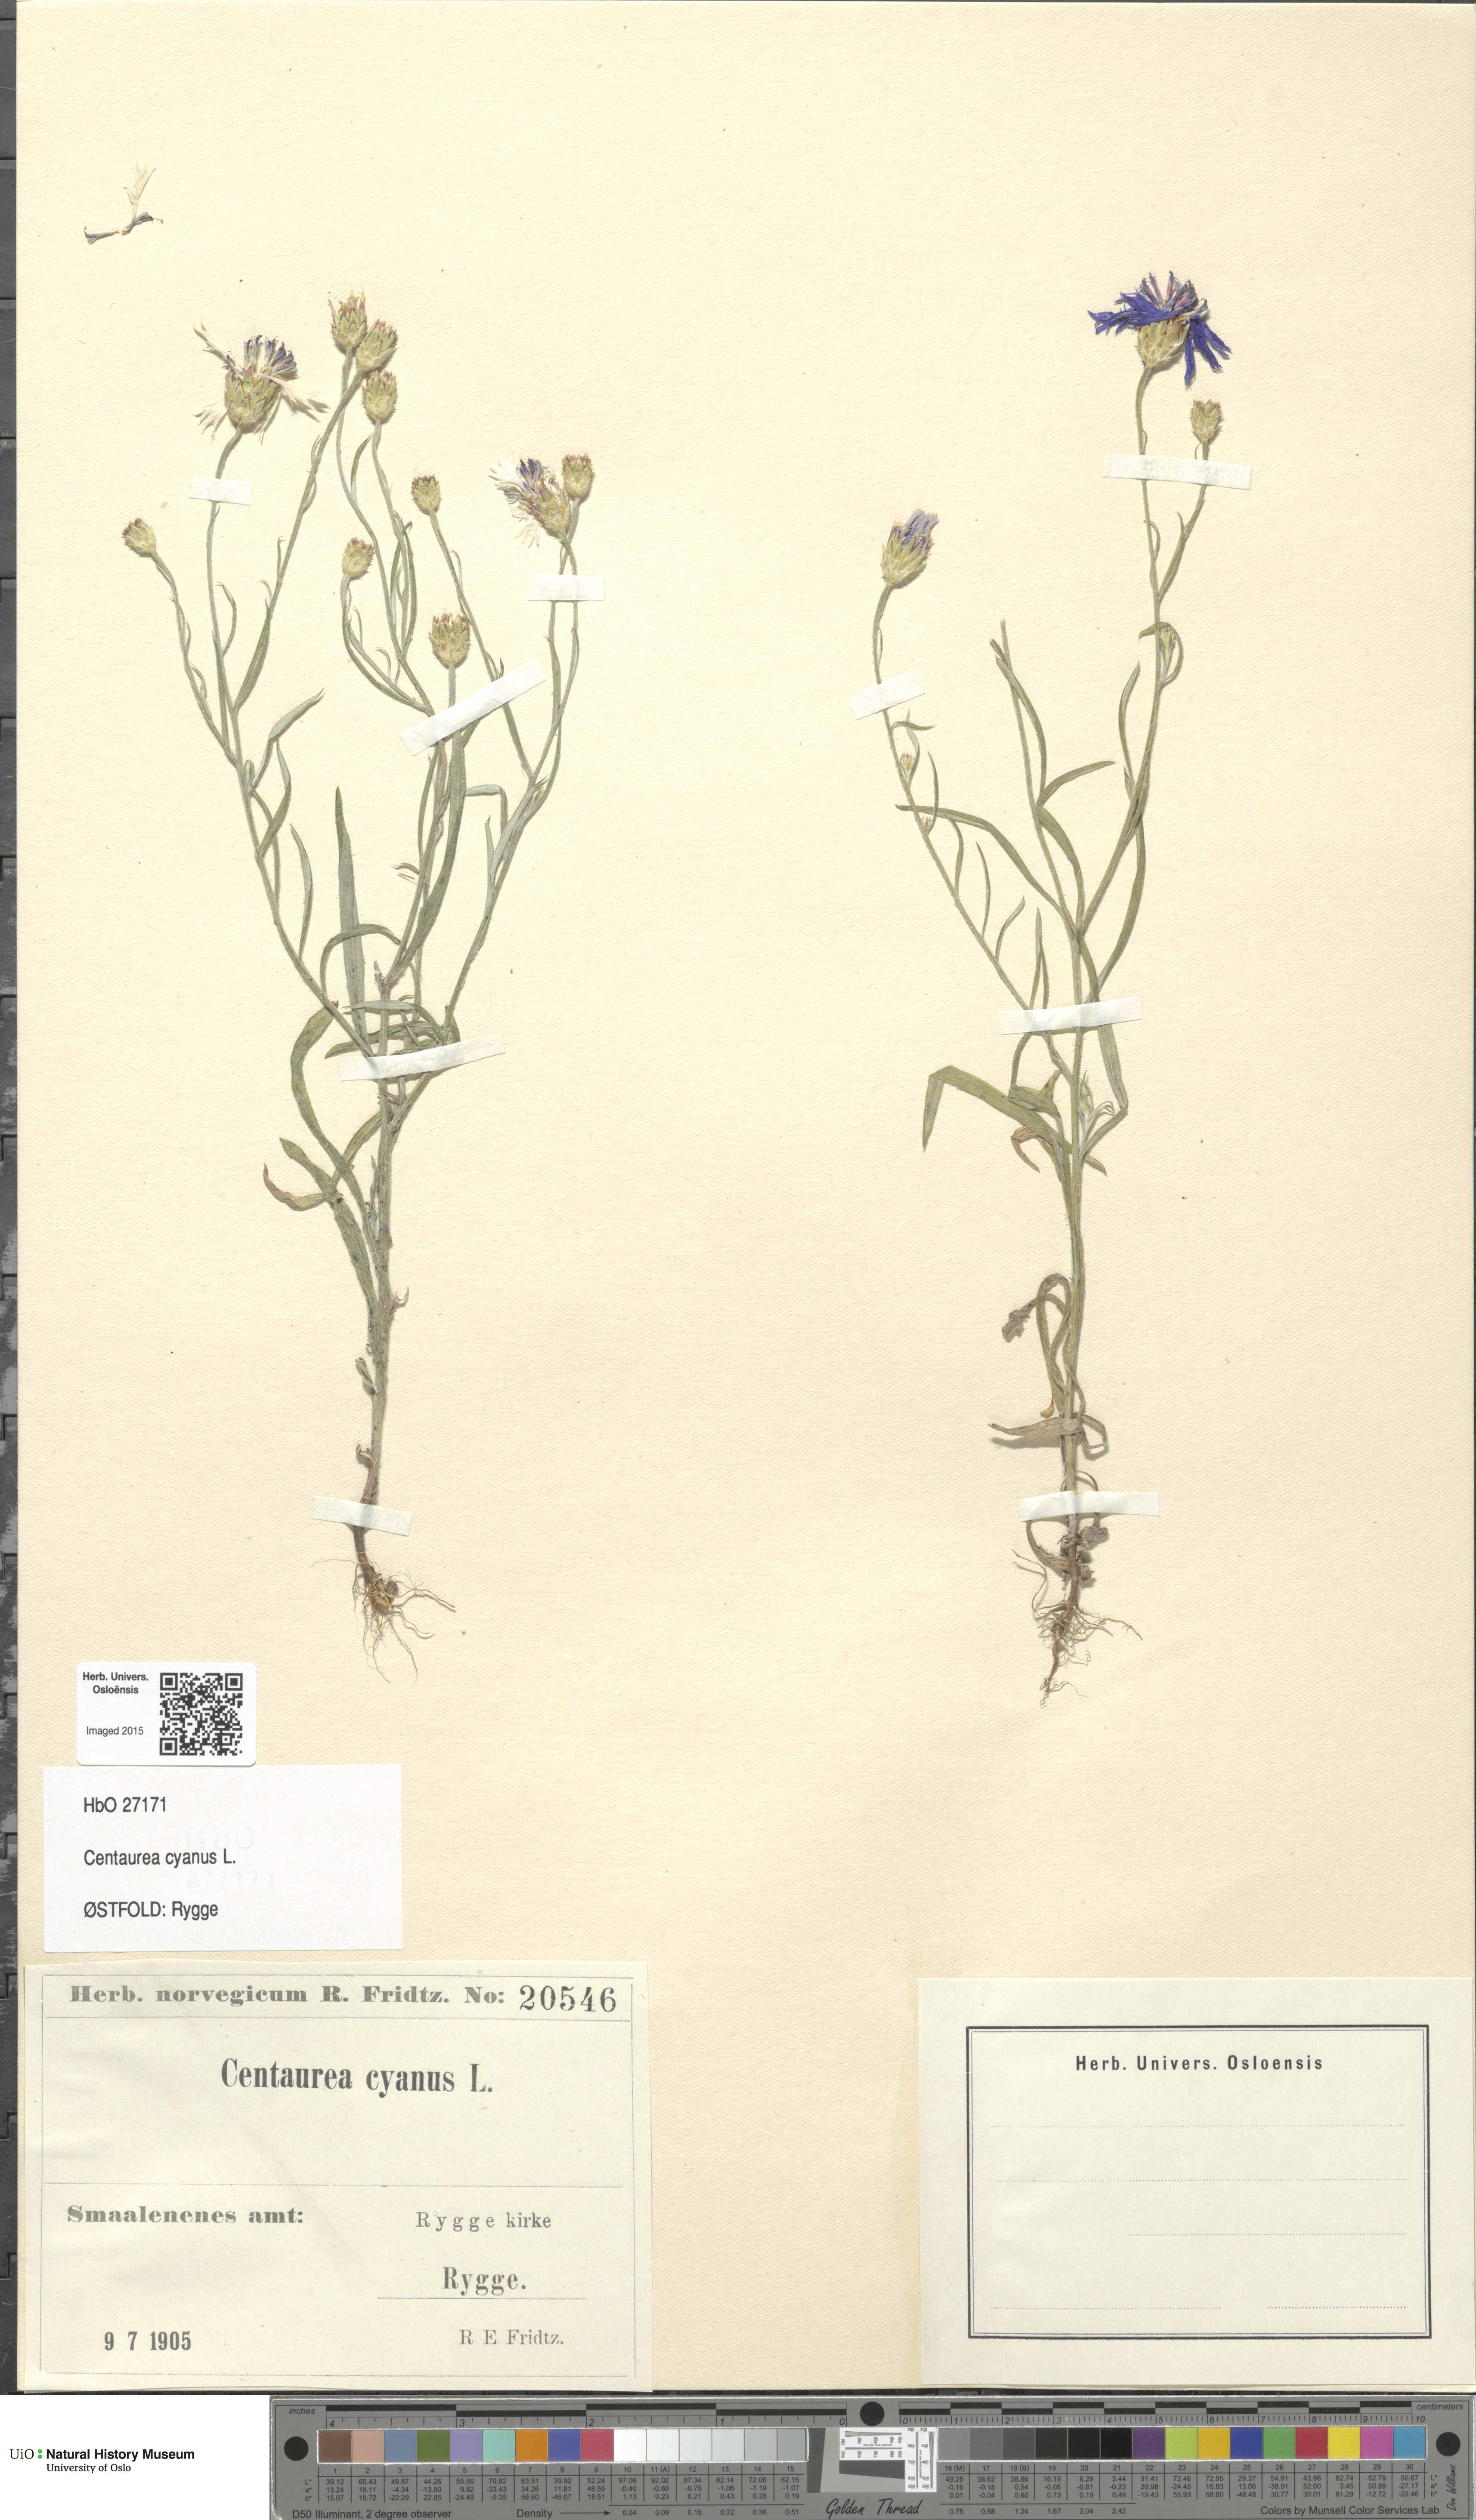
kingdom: Plantae
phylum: Tracheophyta
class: Magnoliopsida
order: Asterales
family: Asteraceae
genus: Centaurea
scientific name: Centaurea cyanus
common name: Cornflower
